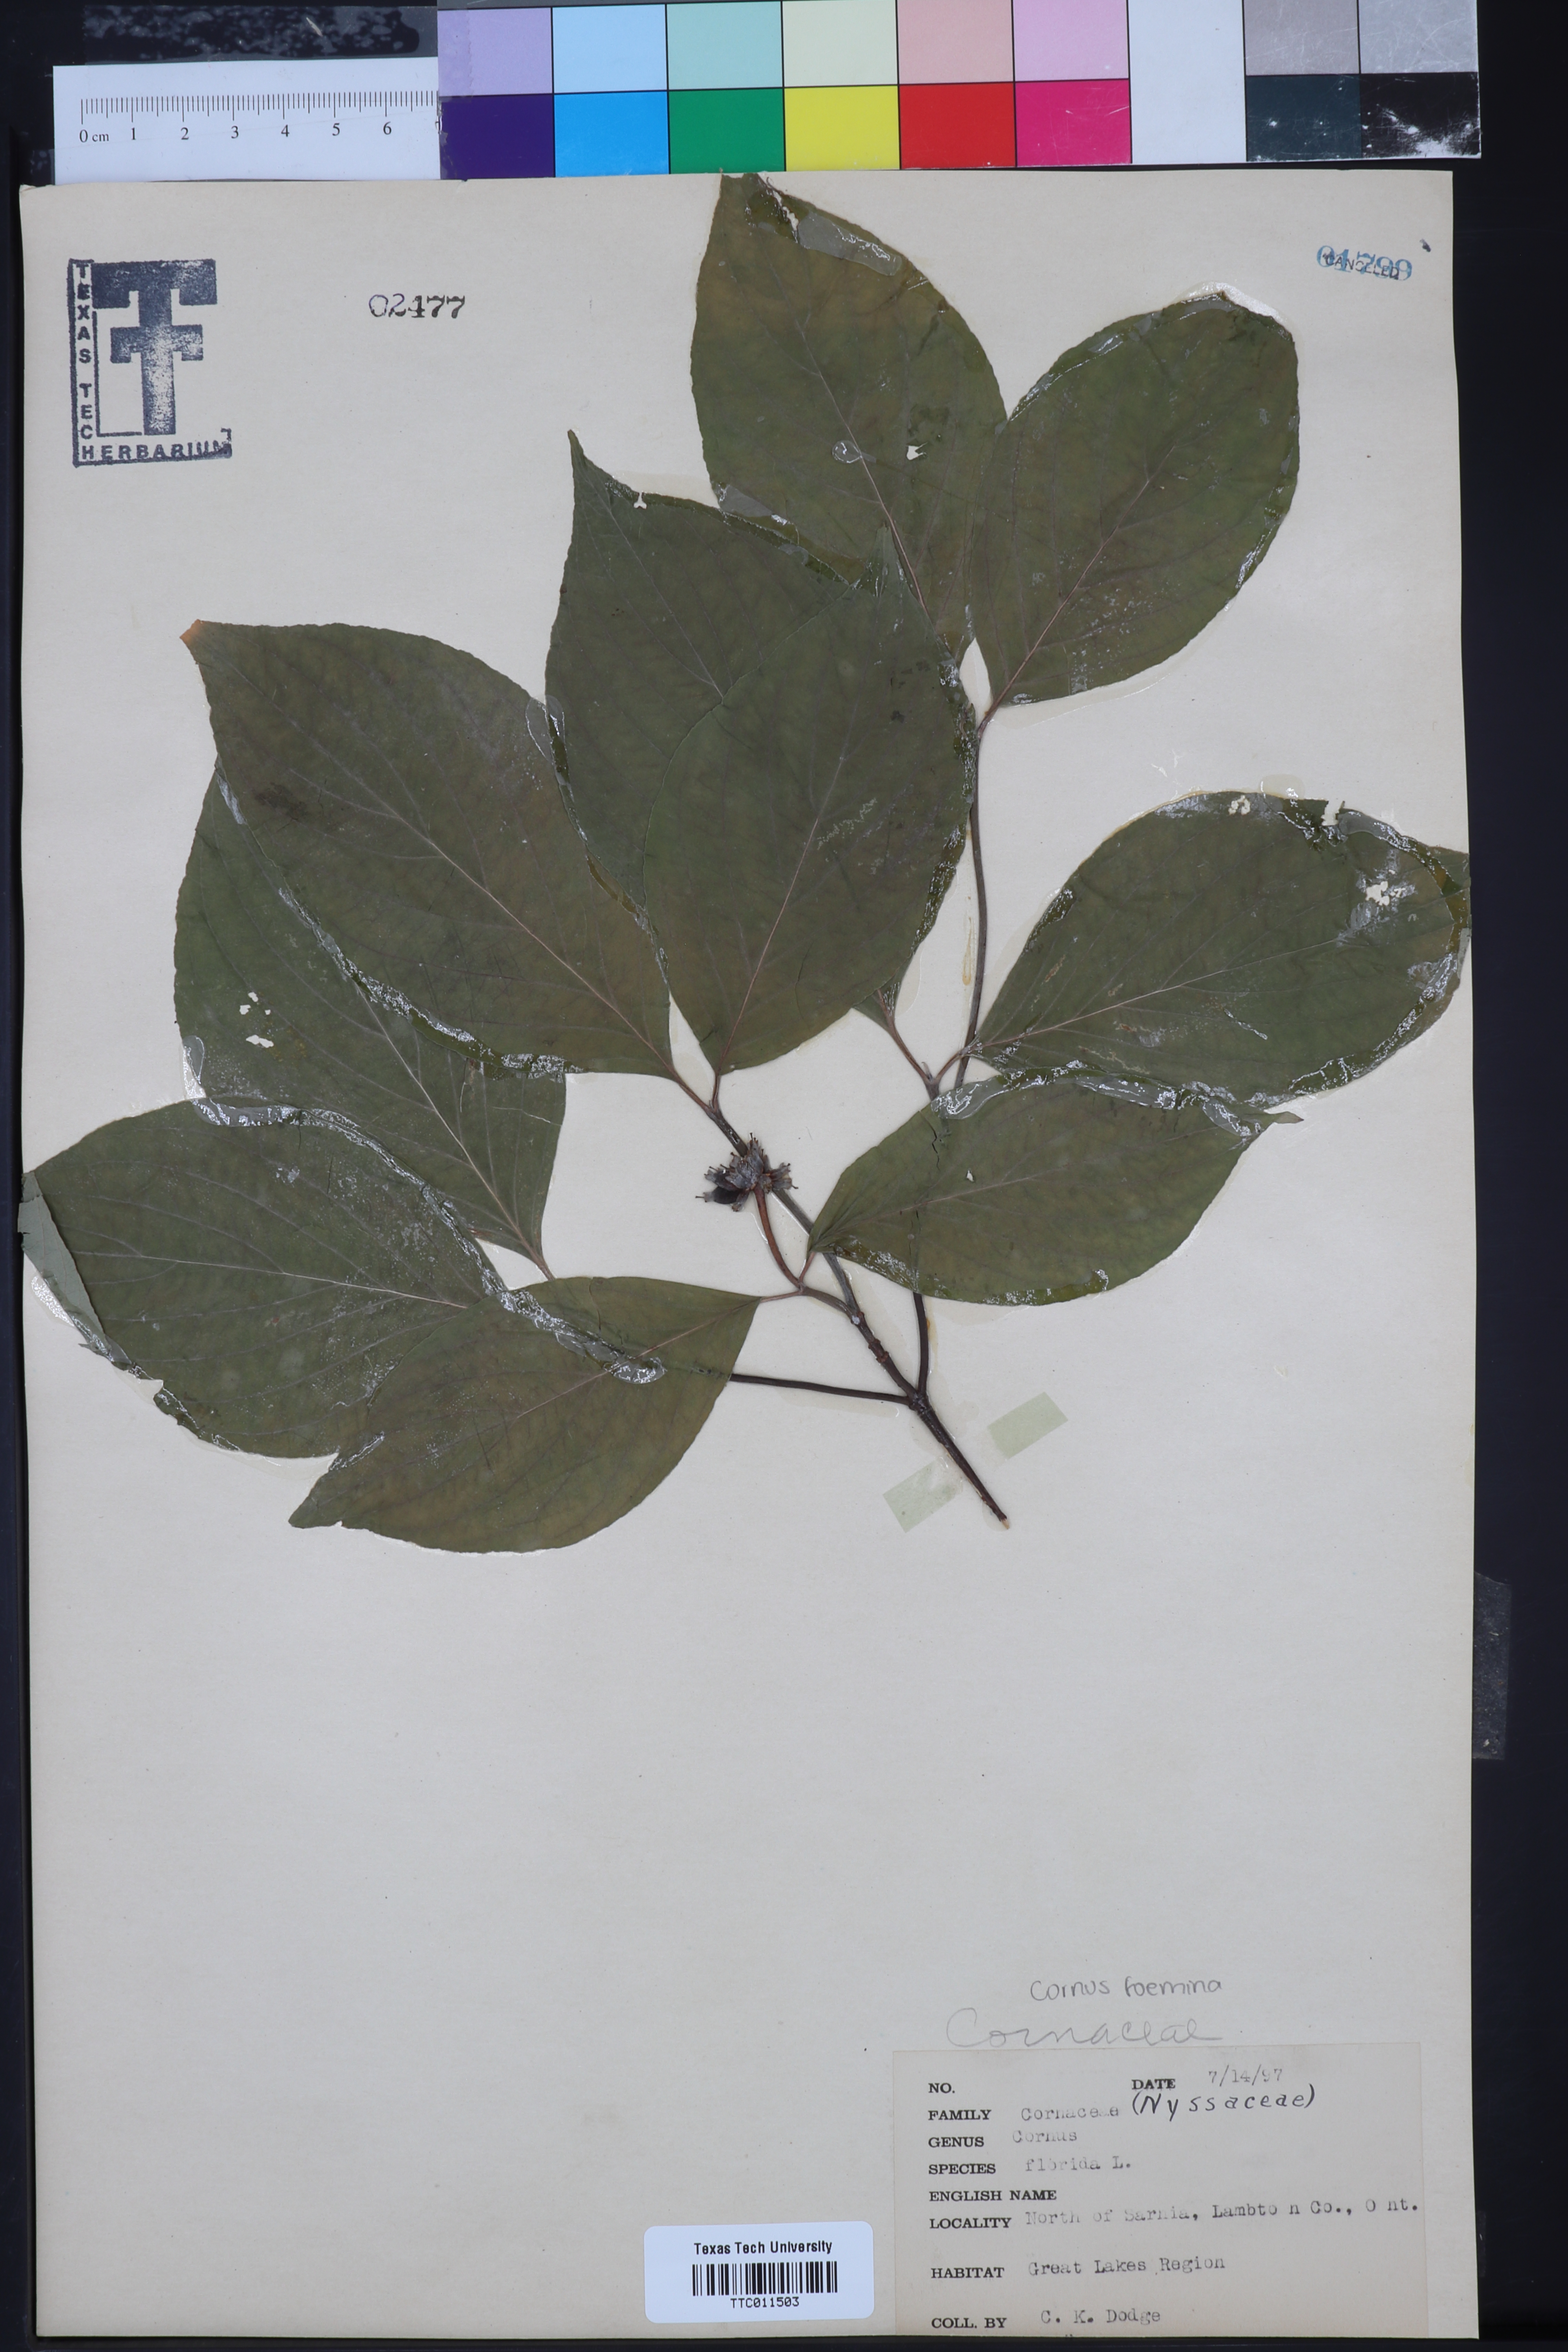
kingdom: Plantae
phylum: Tracheophyta
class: Magnoliopsida
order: Cornales
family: Cornaceae
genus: Cornus
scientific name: Cornus florida
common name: Flowering dogwood
